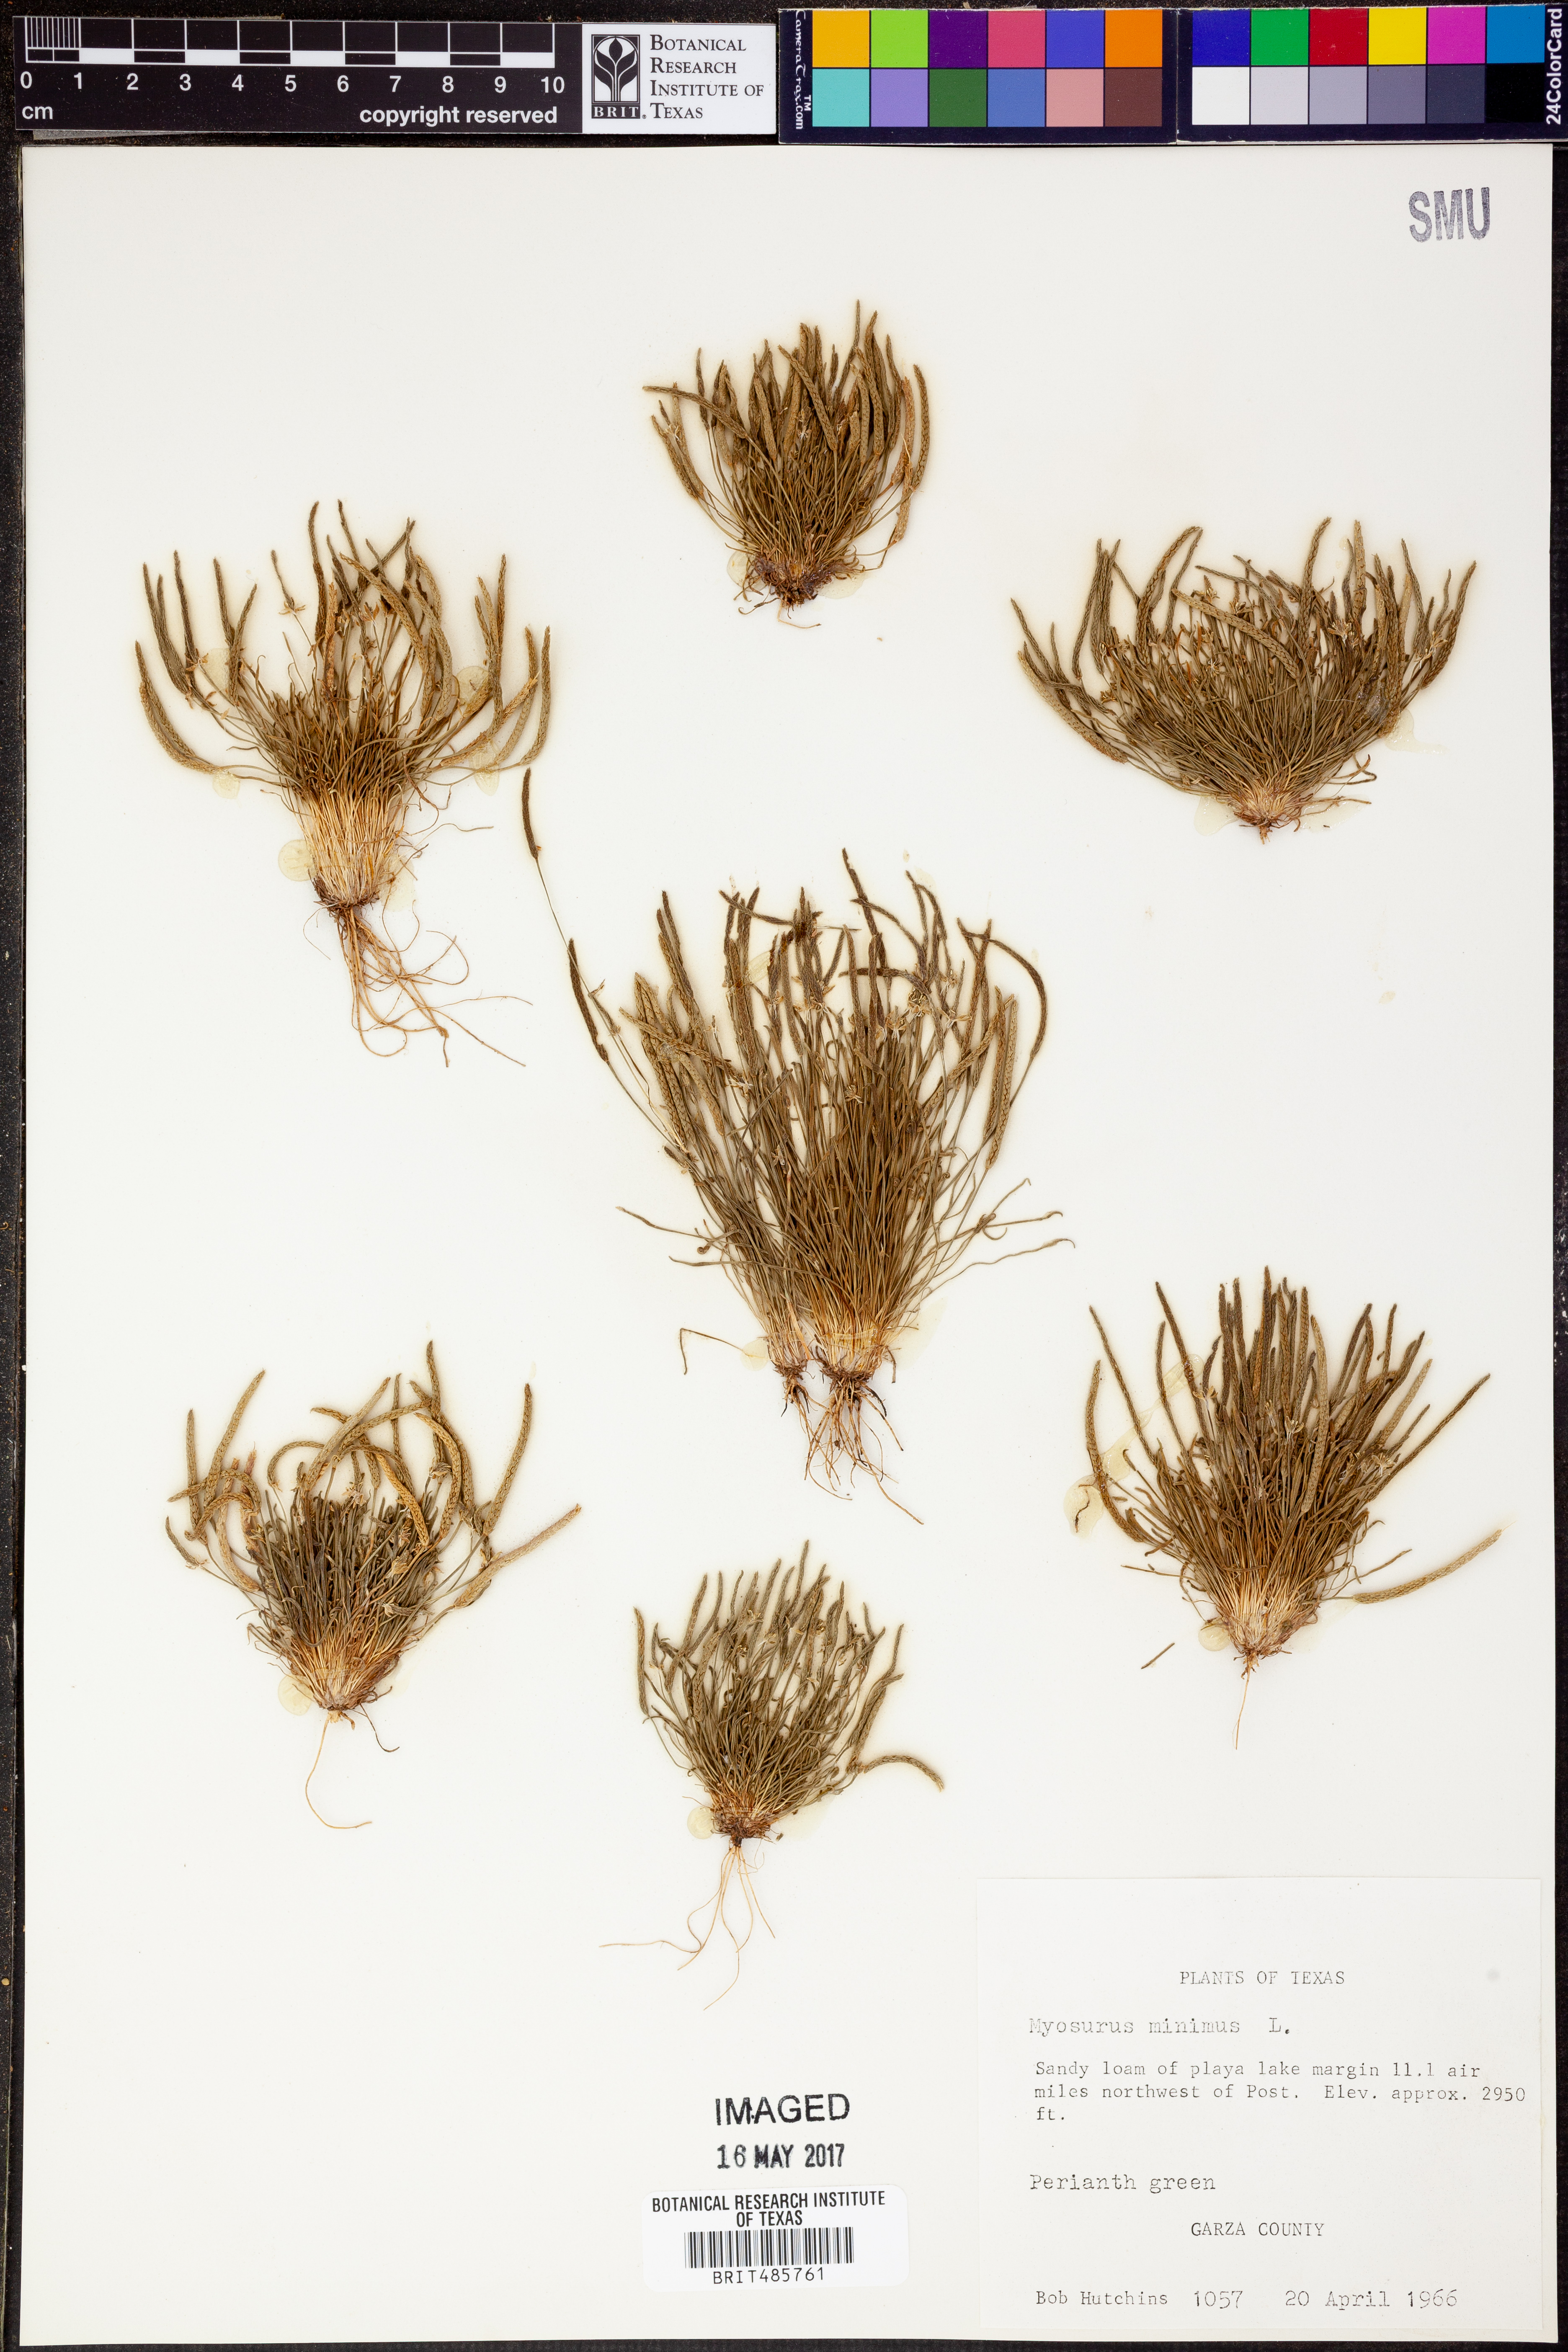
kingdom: Plantae
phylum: Tracheophyta
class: Magnoliopsida
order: Ranunculales
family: Ranunculaceae
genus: Myosurus
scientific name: Myosurus minimus
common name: Mousetail
